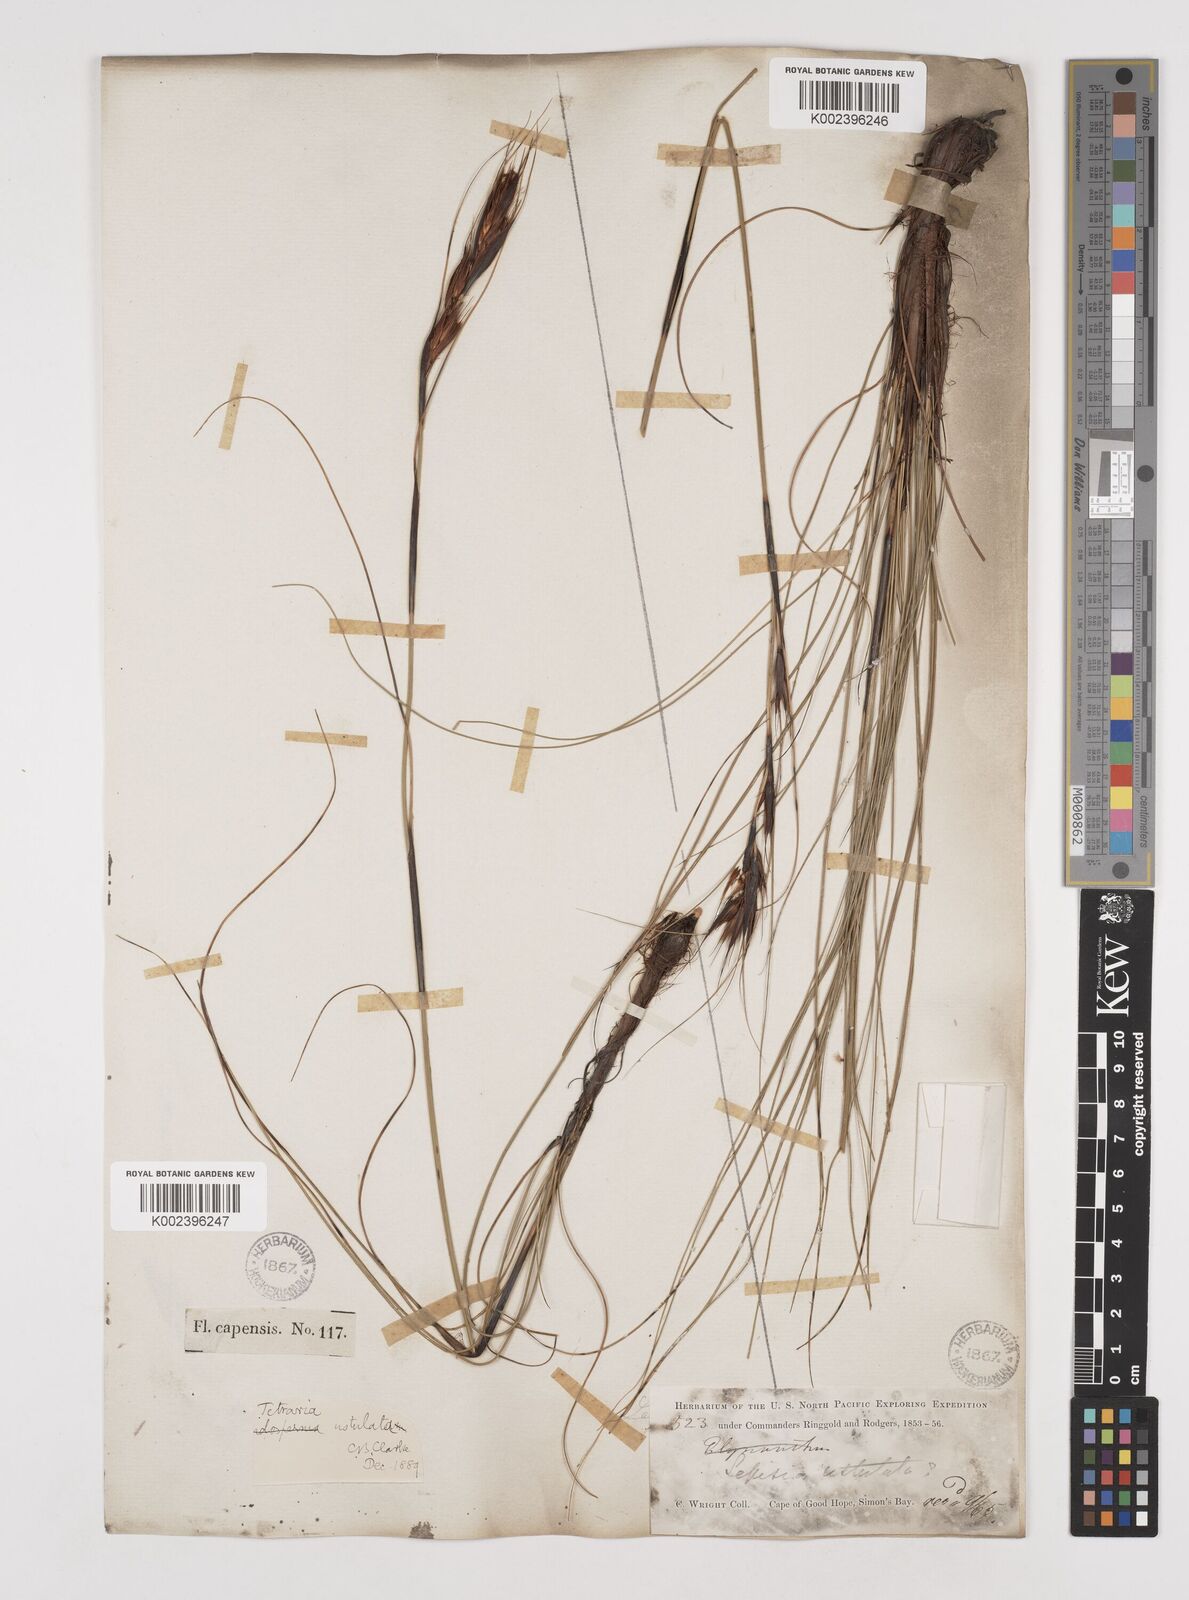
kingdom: Plantae
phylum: Tracheophyta
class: Liliopsida
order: Poales
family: Cyperaceae
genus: Tetraria
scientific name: Tetraria ustulata
